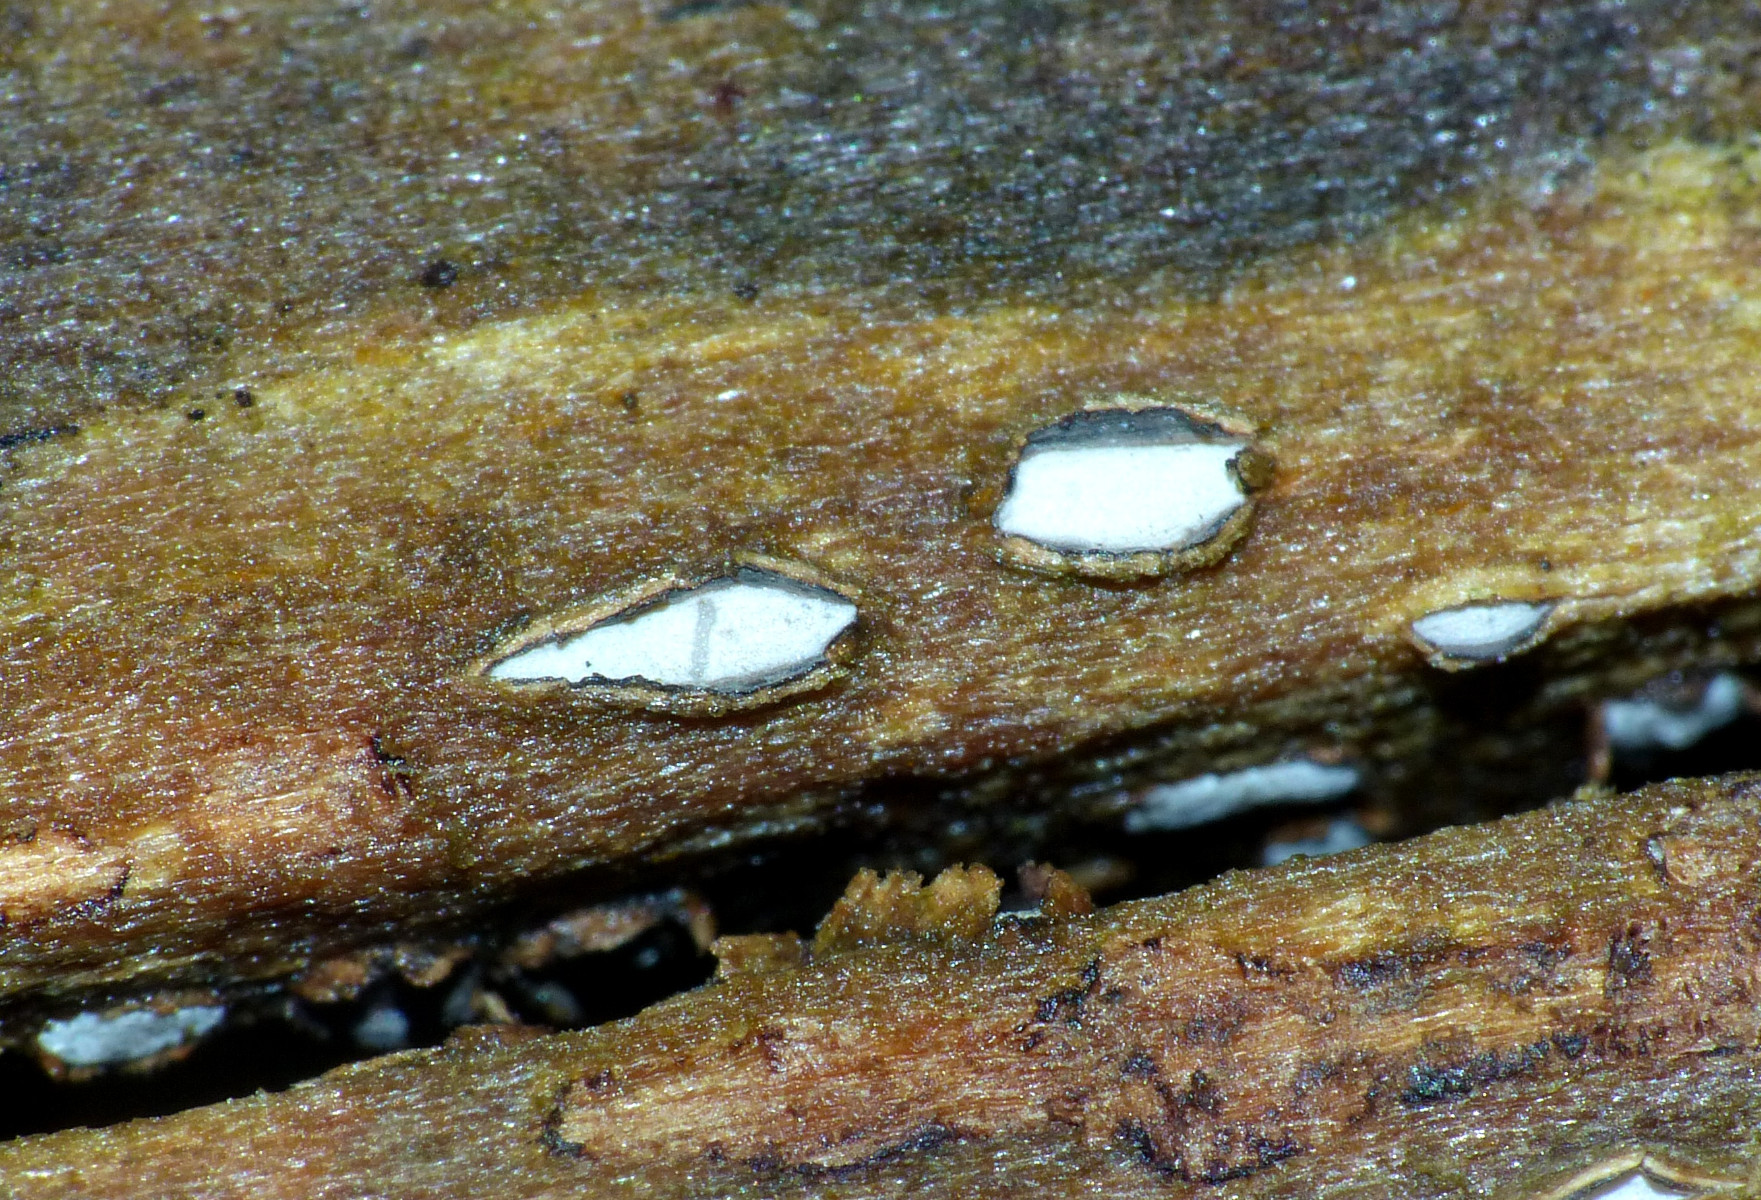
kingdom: Fungi
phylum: Ascomycota
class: Leotiomycetes
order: Chaetomellales
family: Marthamycetaceae
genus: Propolis
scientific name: Propolis farinosa
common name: almindelig vedsprængerskive
